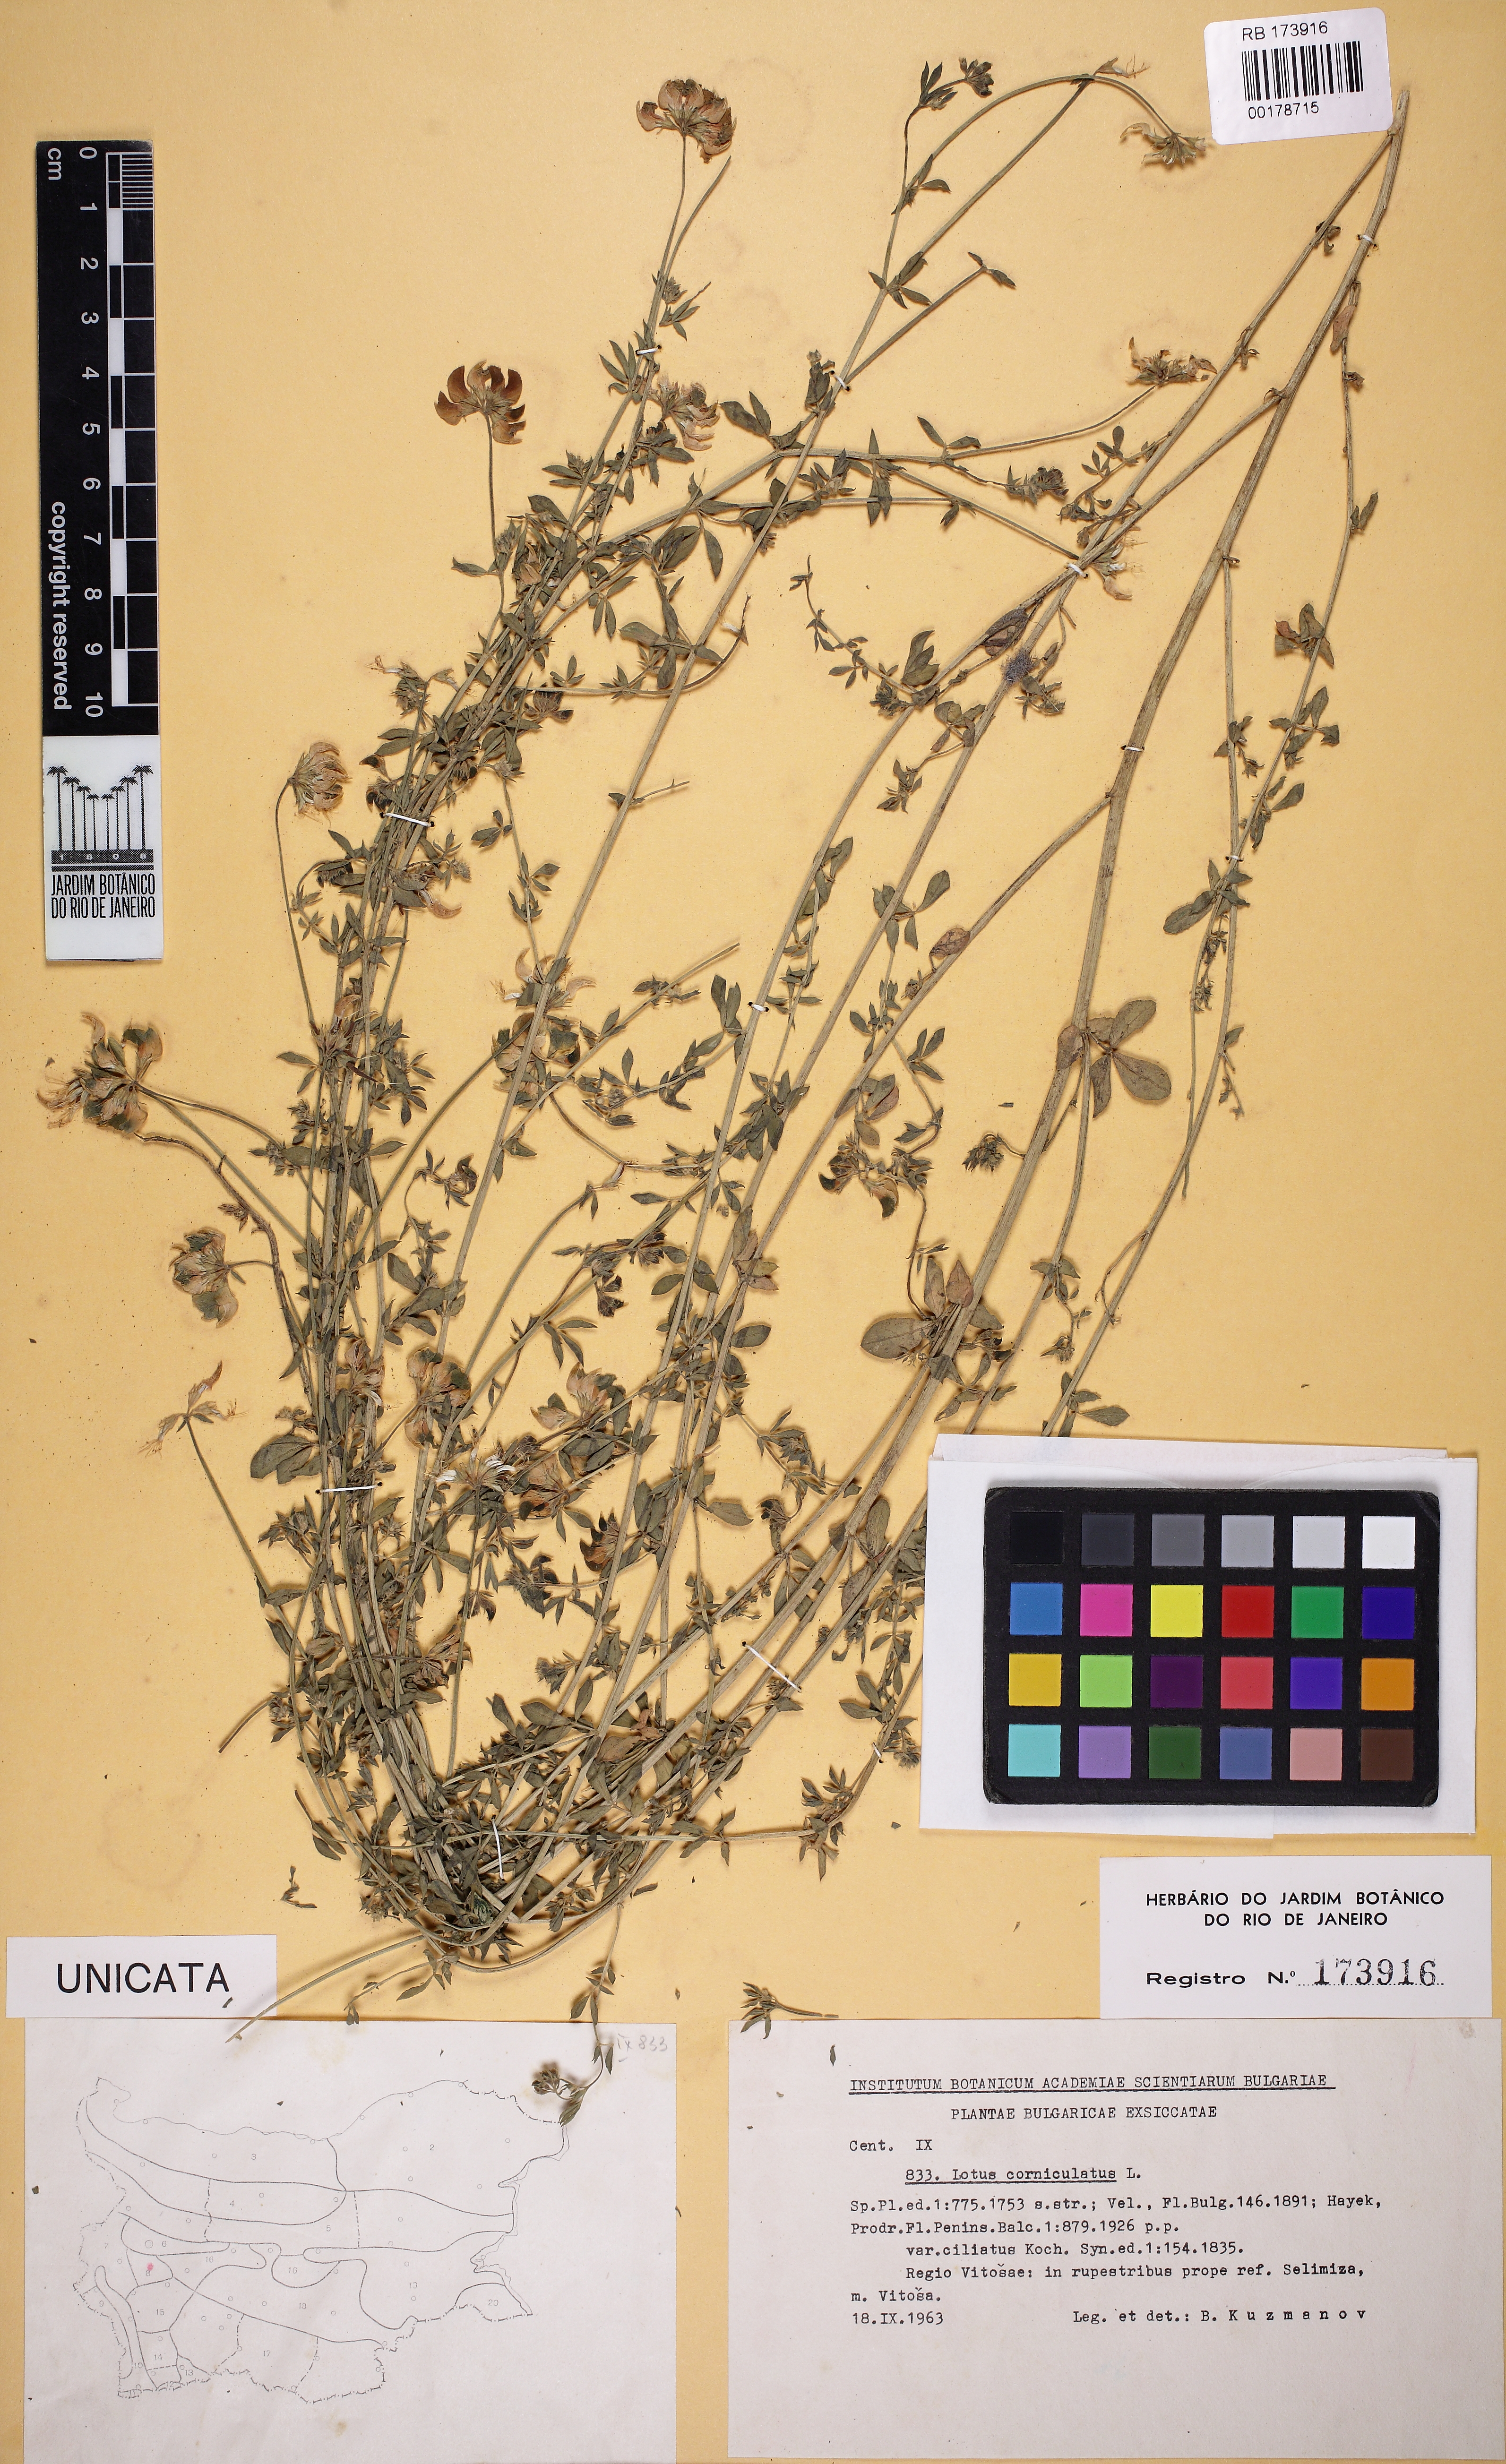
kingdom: Plantae
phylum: Tracheophyta
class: Magnoliopsida
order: Fabales
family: Fabaceae
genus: Lotus
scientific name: Lotus corniculatus
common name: Common bird's-foot-trefoil
